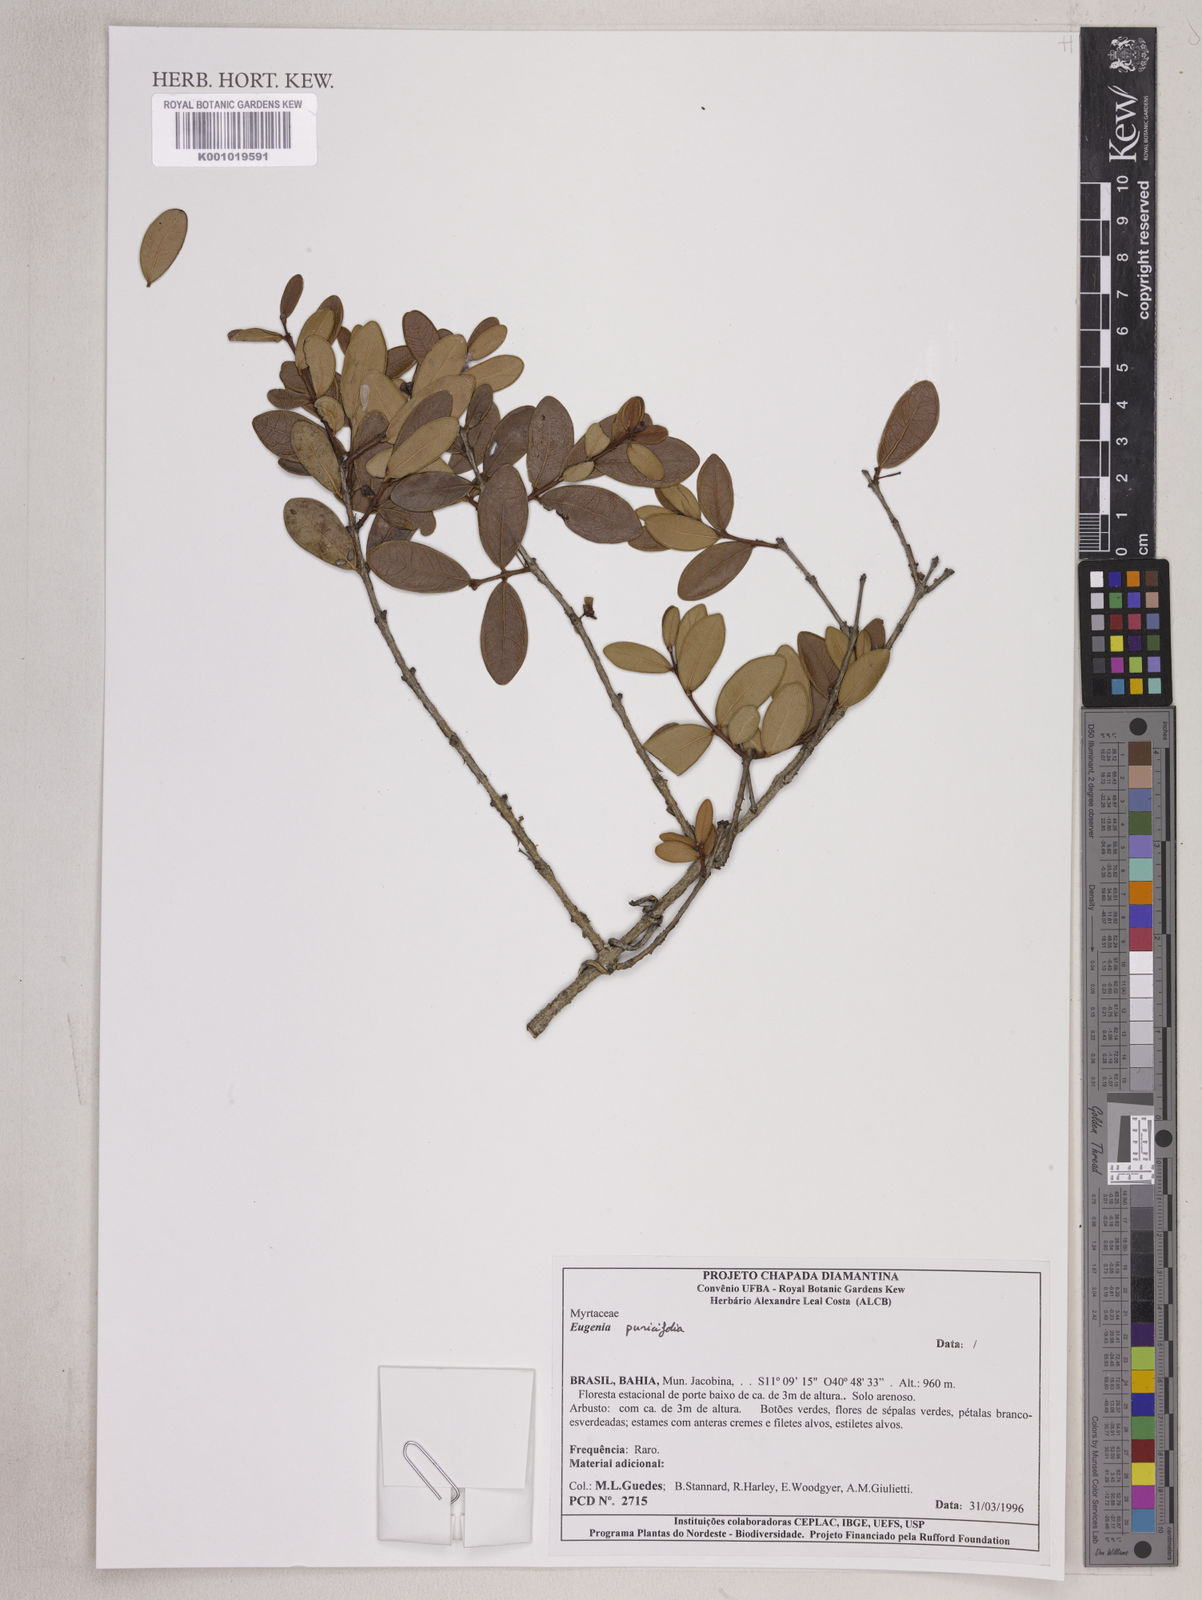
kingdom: Plantae
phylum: Tracheophyta
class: Magnoliopsida
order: Myrtales
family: Myrtaceae
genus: Eugenia
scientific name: Eugenia punicifolia
